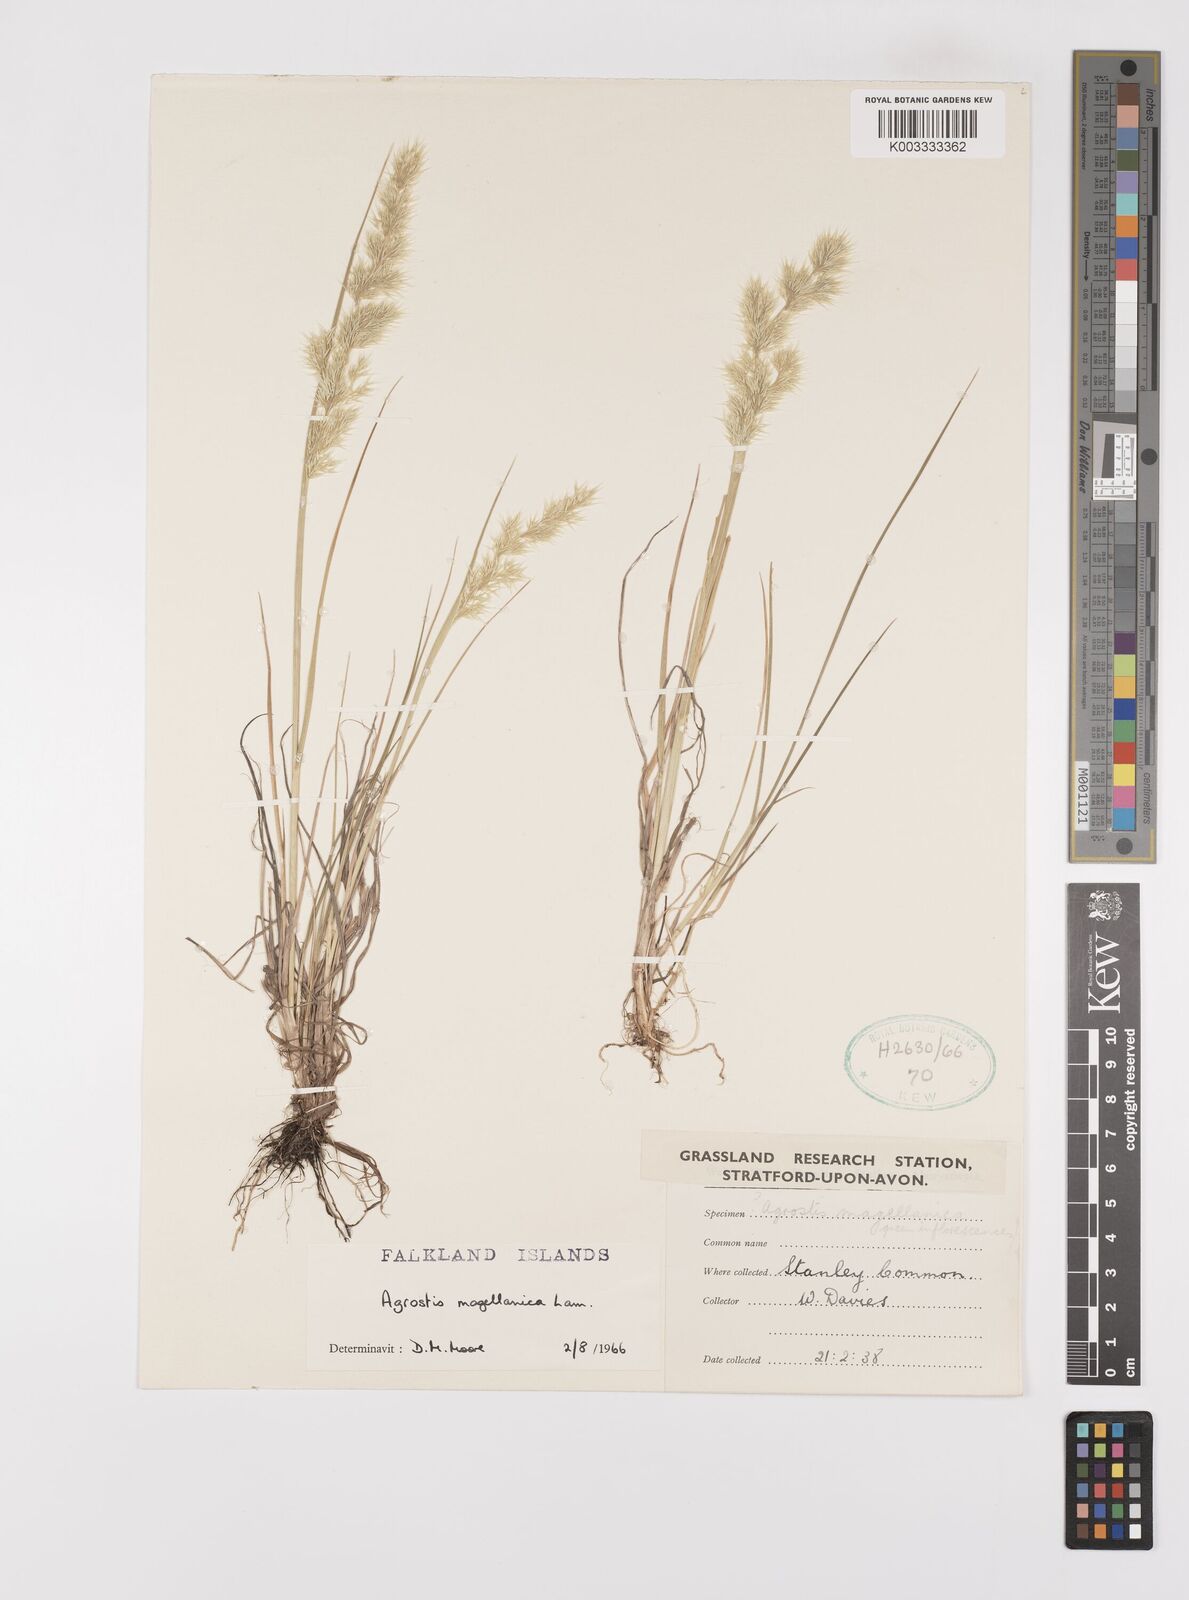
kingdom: Plantae
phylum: Tracheophyta
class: Liliopsida
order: Poales
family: Poaceae
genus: Polypogon
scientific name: Polypogon magellanicus
